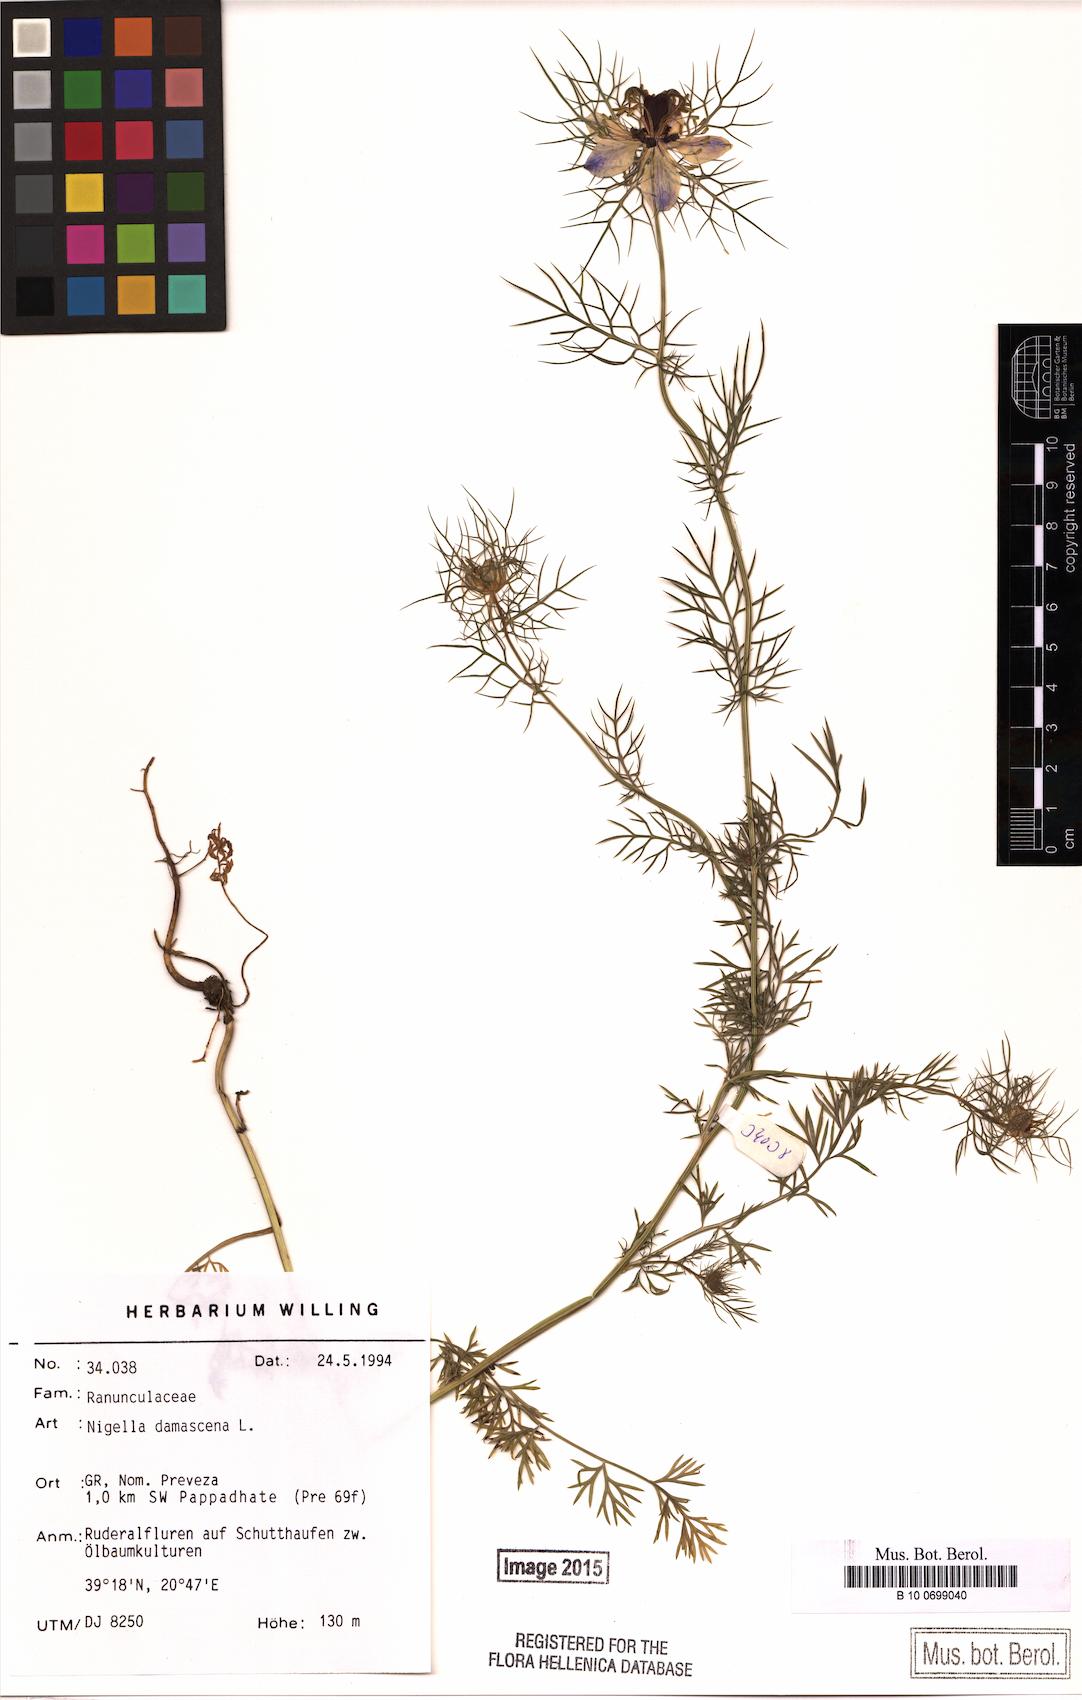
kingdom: Plantae
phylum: Tracheophyta
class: Magnoliopsida
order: Ranunculales
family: Ranunculaceae
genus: Nigella
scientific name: Nigella damascena
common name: Love-in-a-mist
